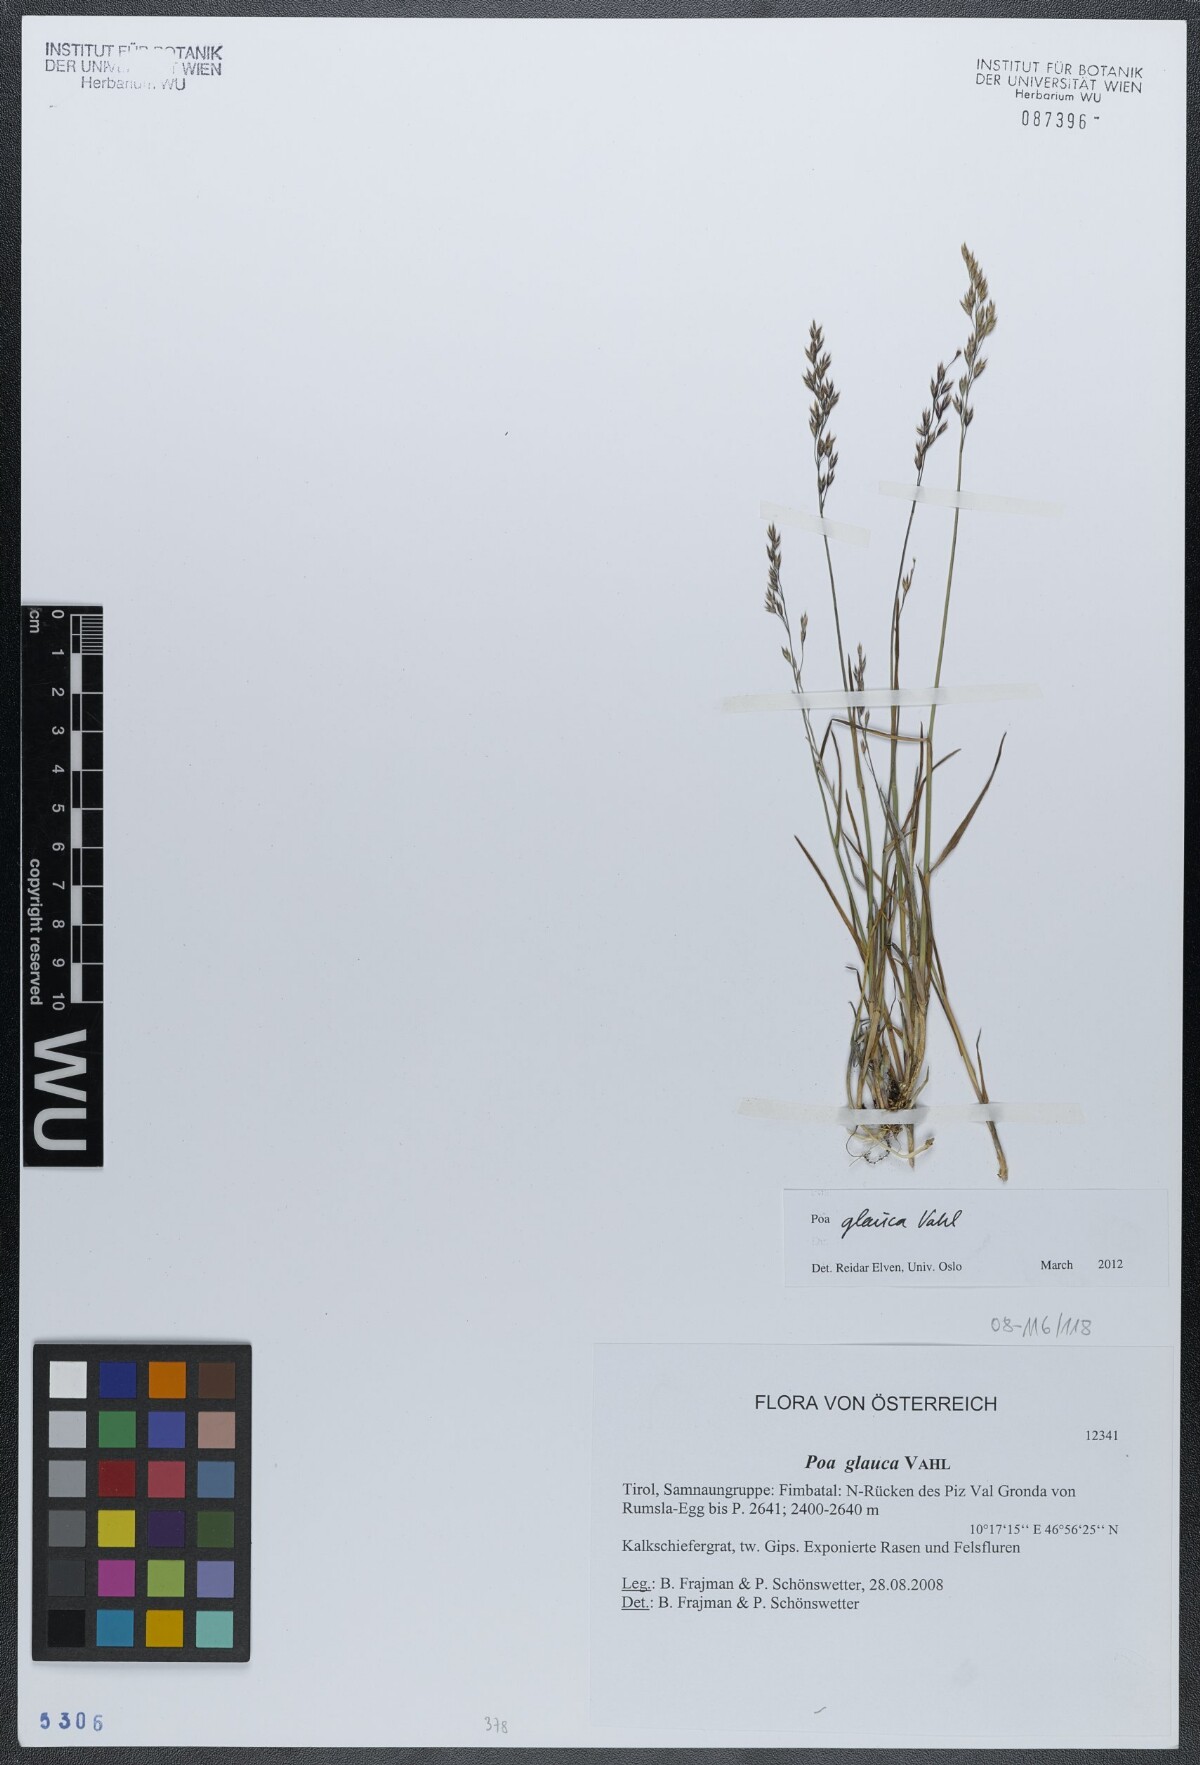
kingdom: Plantae
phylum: Tracheophyta
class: Liliopsida
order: Poales
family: Poaceae
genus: Poa
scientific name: Poa glauca
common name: Glaucous bluegrass
